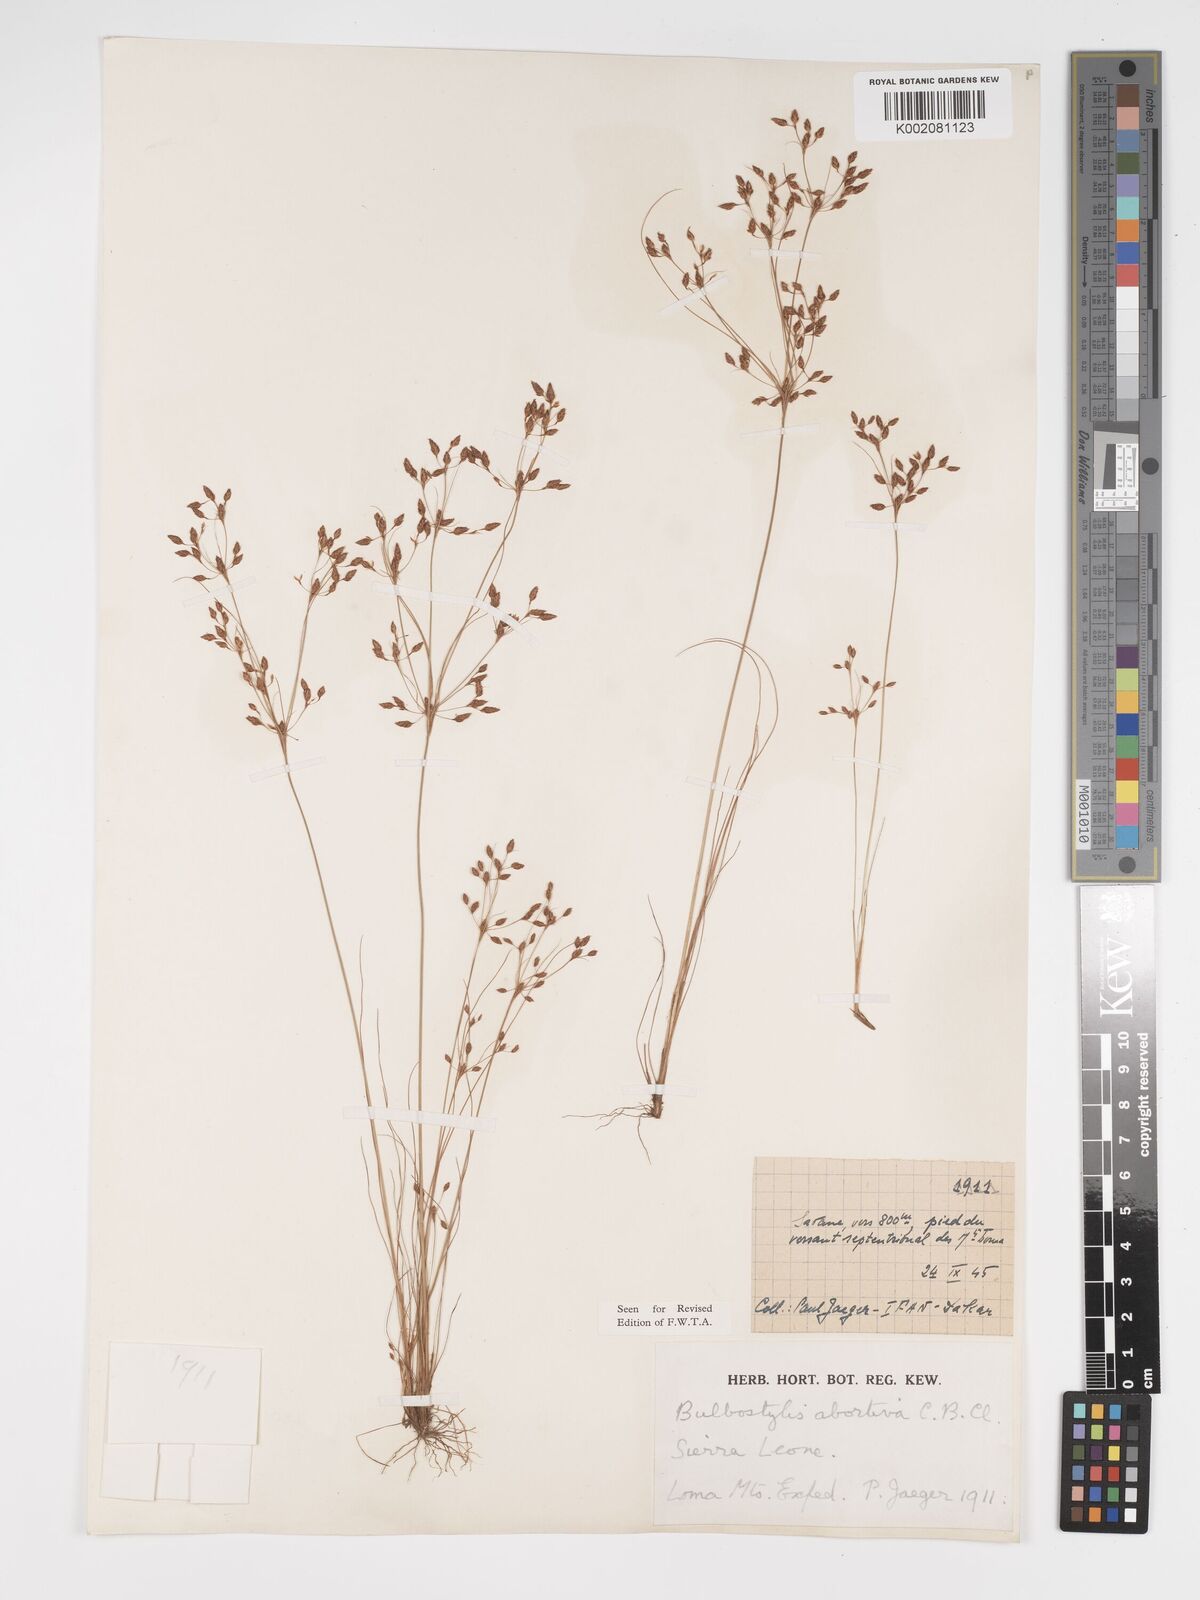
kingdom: Plantae
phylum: Tracheophyta
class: Liliopsida
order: Poales
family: Cyperaceae
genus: Bulbostylis
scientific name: Bulbostylis abortiva
